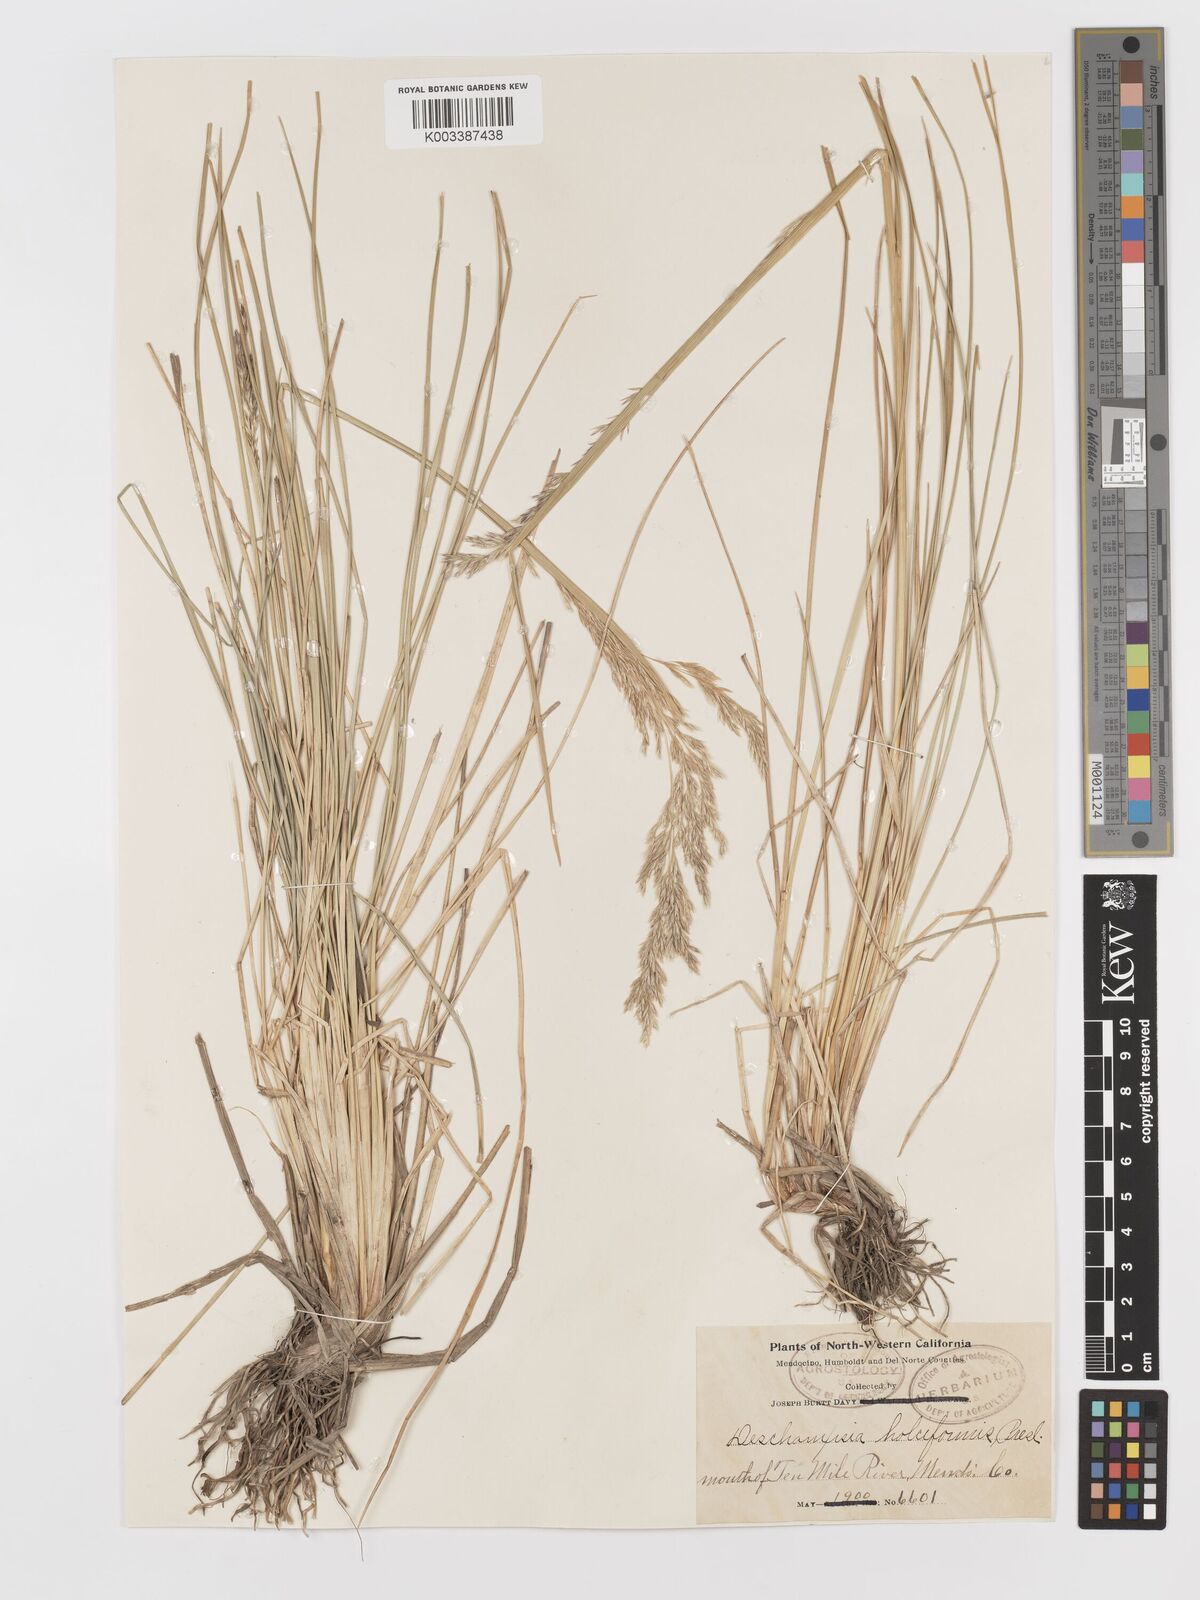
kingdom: Plantae
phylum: Tracheophyta
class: Liliopsida
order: Poales
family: Poaceae
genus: Deschampsia
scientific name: Deschampsia cespitosa
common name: Tufted hair-grass
